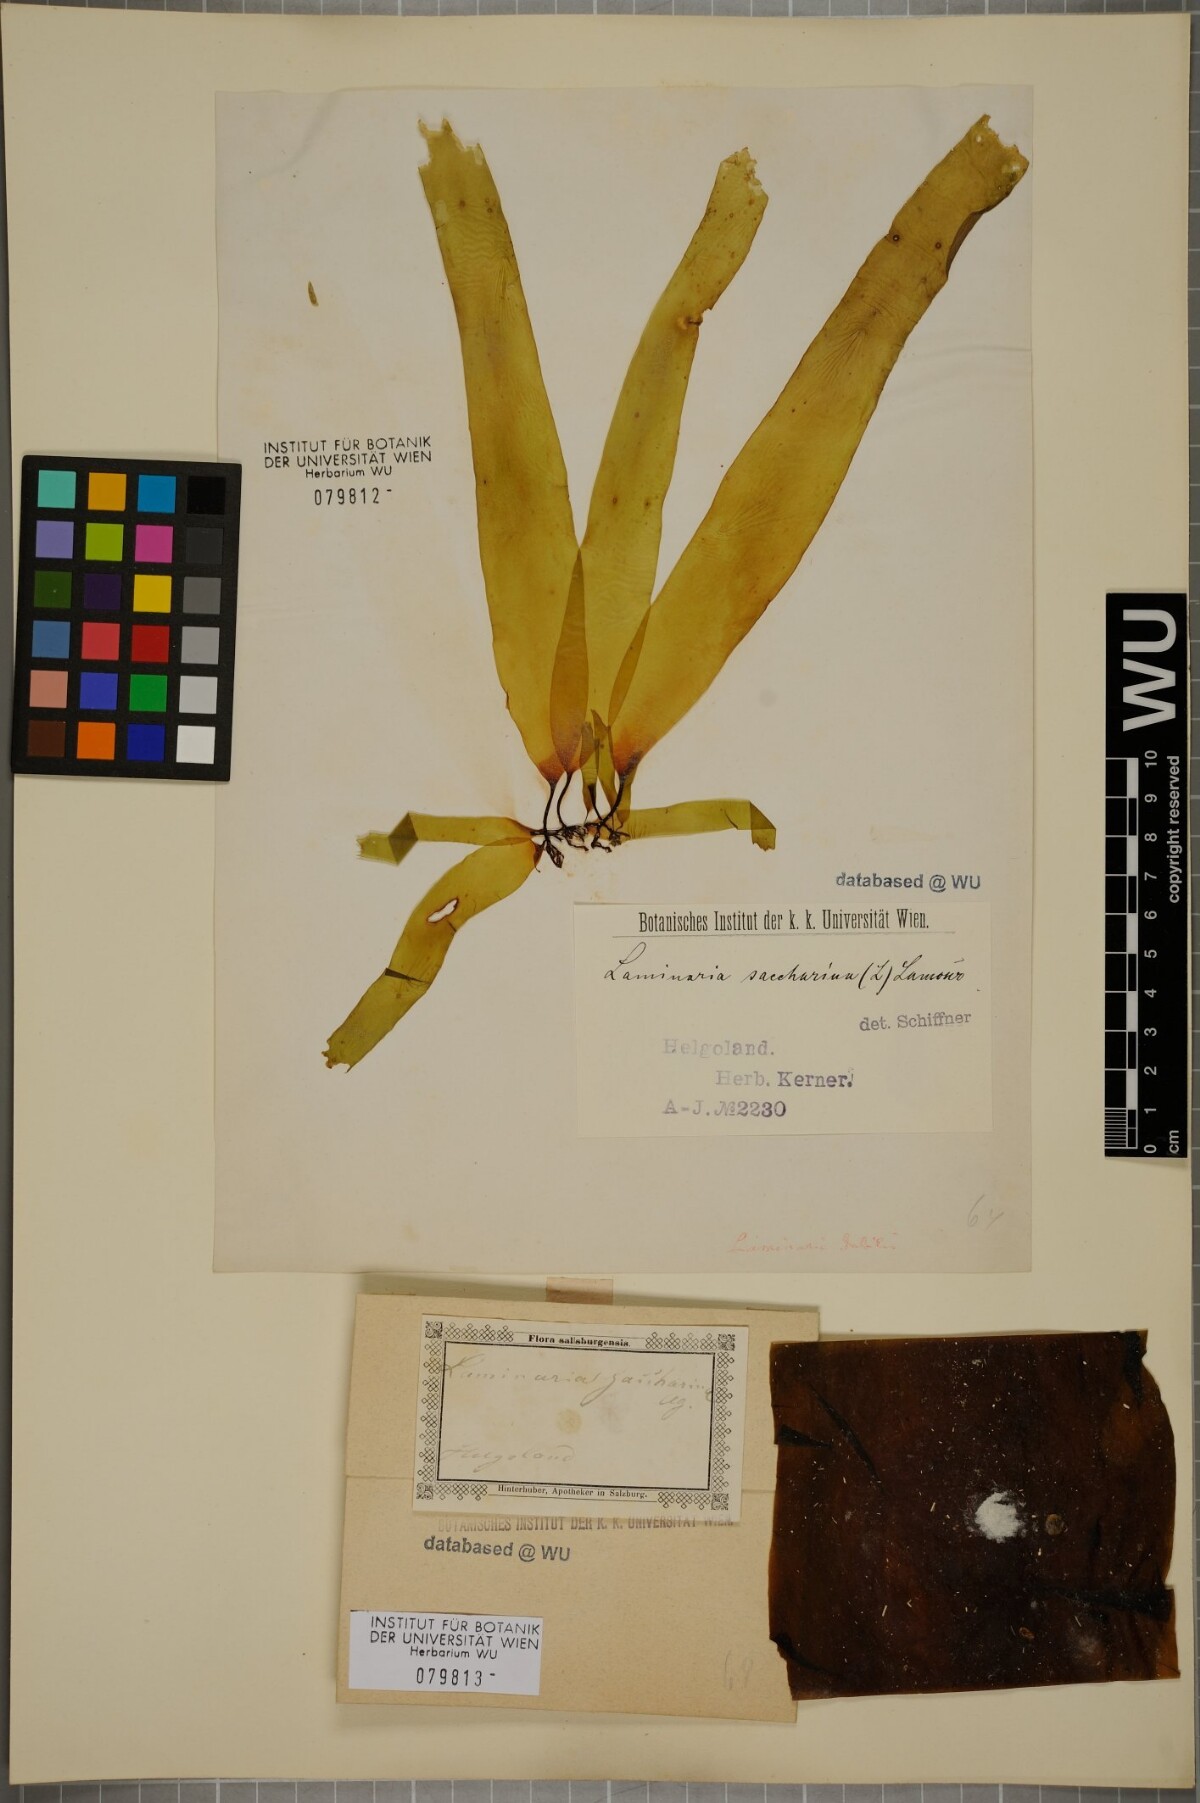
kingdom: Chromista
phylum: Ochrophyta
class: Phaeophyceae
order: Laminariales
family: Laminariaceae
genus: Saccharina
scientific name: Saccharina latissima
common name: Poor man's weather glass
